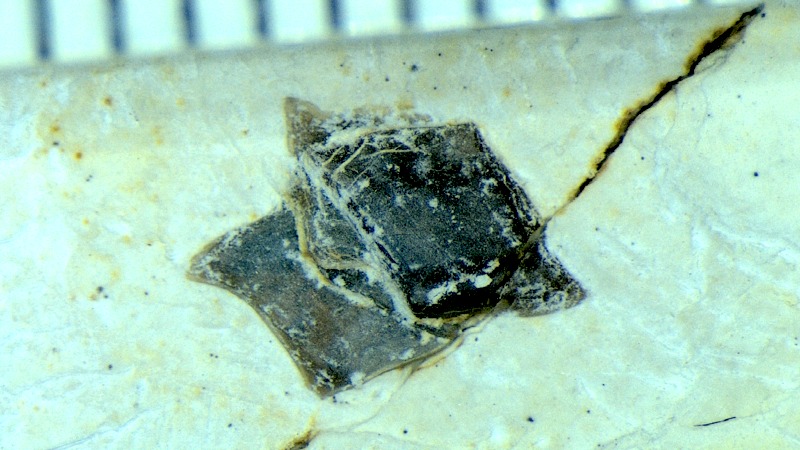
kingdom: Animalia
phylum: Chordata
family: Callipurbeckiidae
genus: Macrosemimimus
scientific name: Macrosemimimus fegerti
